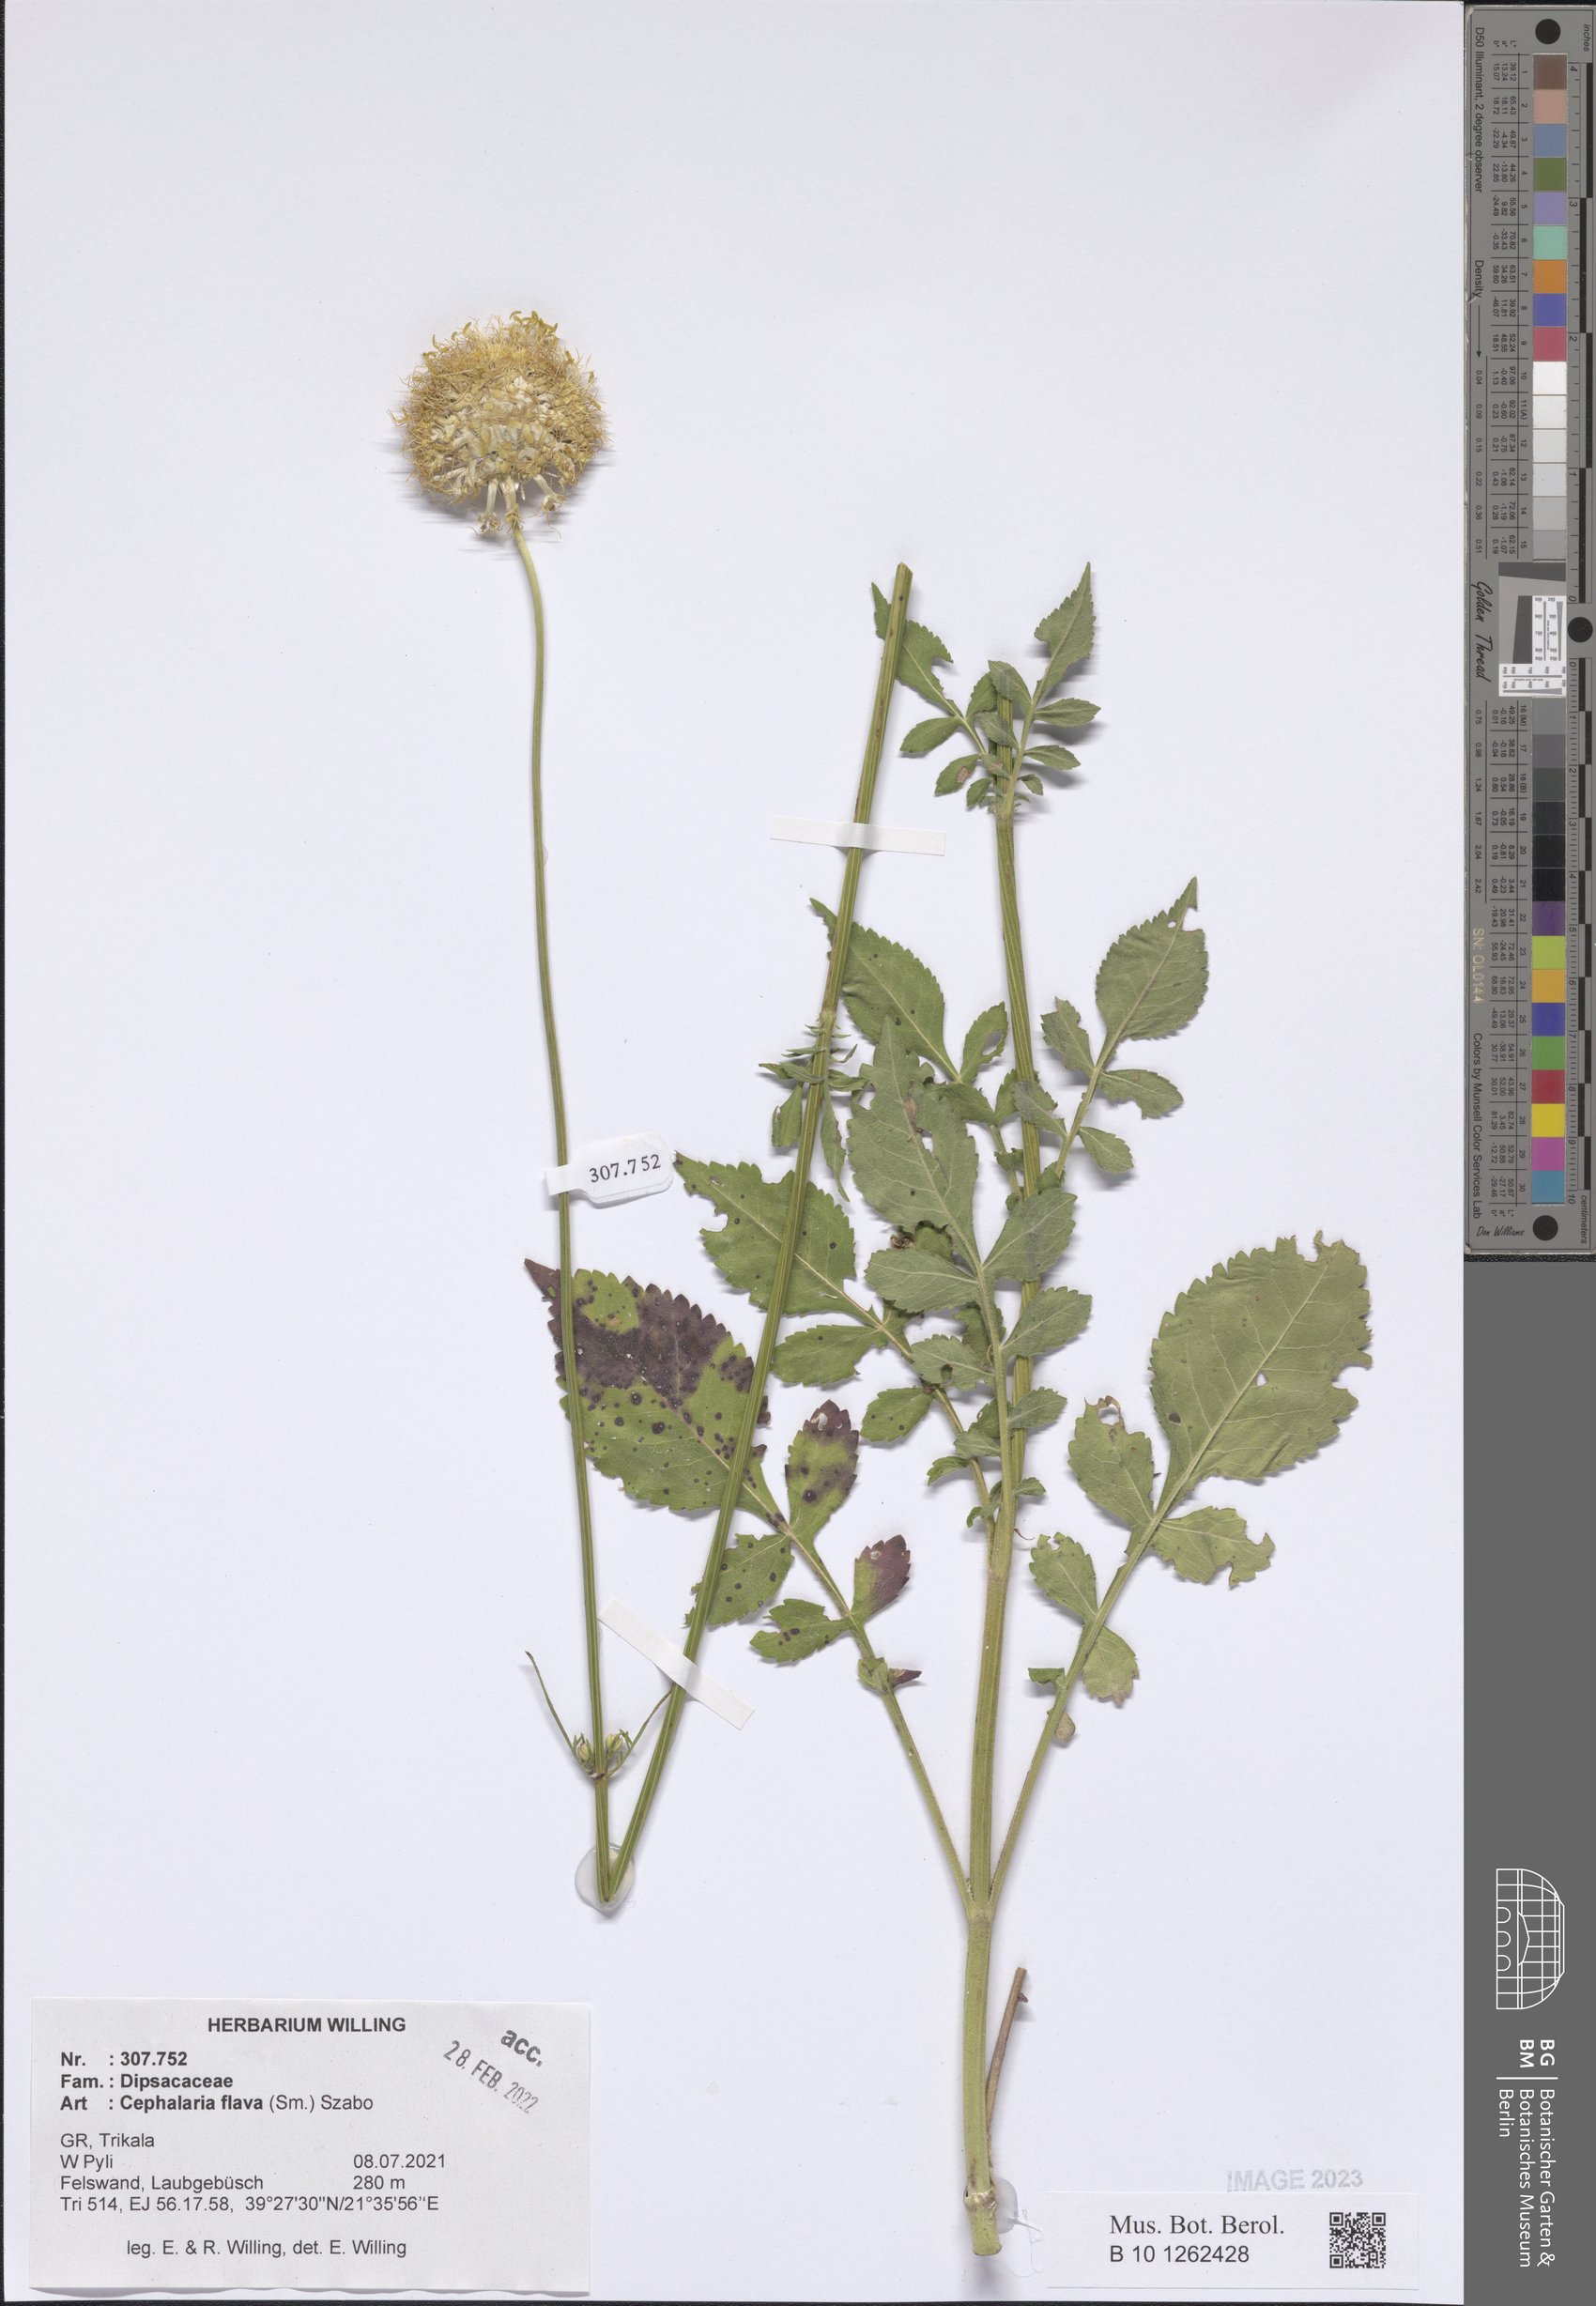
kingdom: Plantae
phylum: Tracheophyta
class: Magnoliopsida
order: Dipsacales
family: Caprifoliaceae
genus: Cephalaria
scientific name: Cephalaria flava
